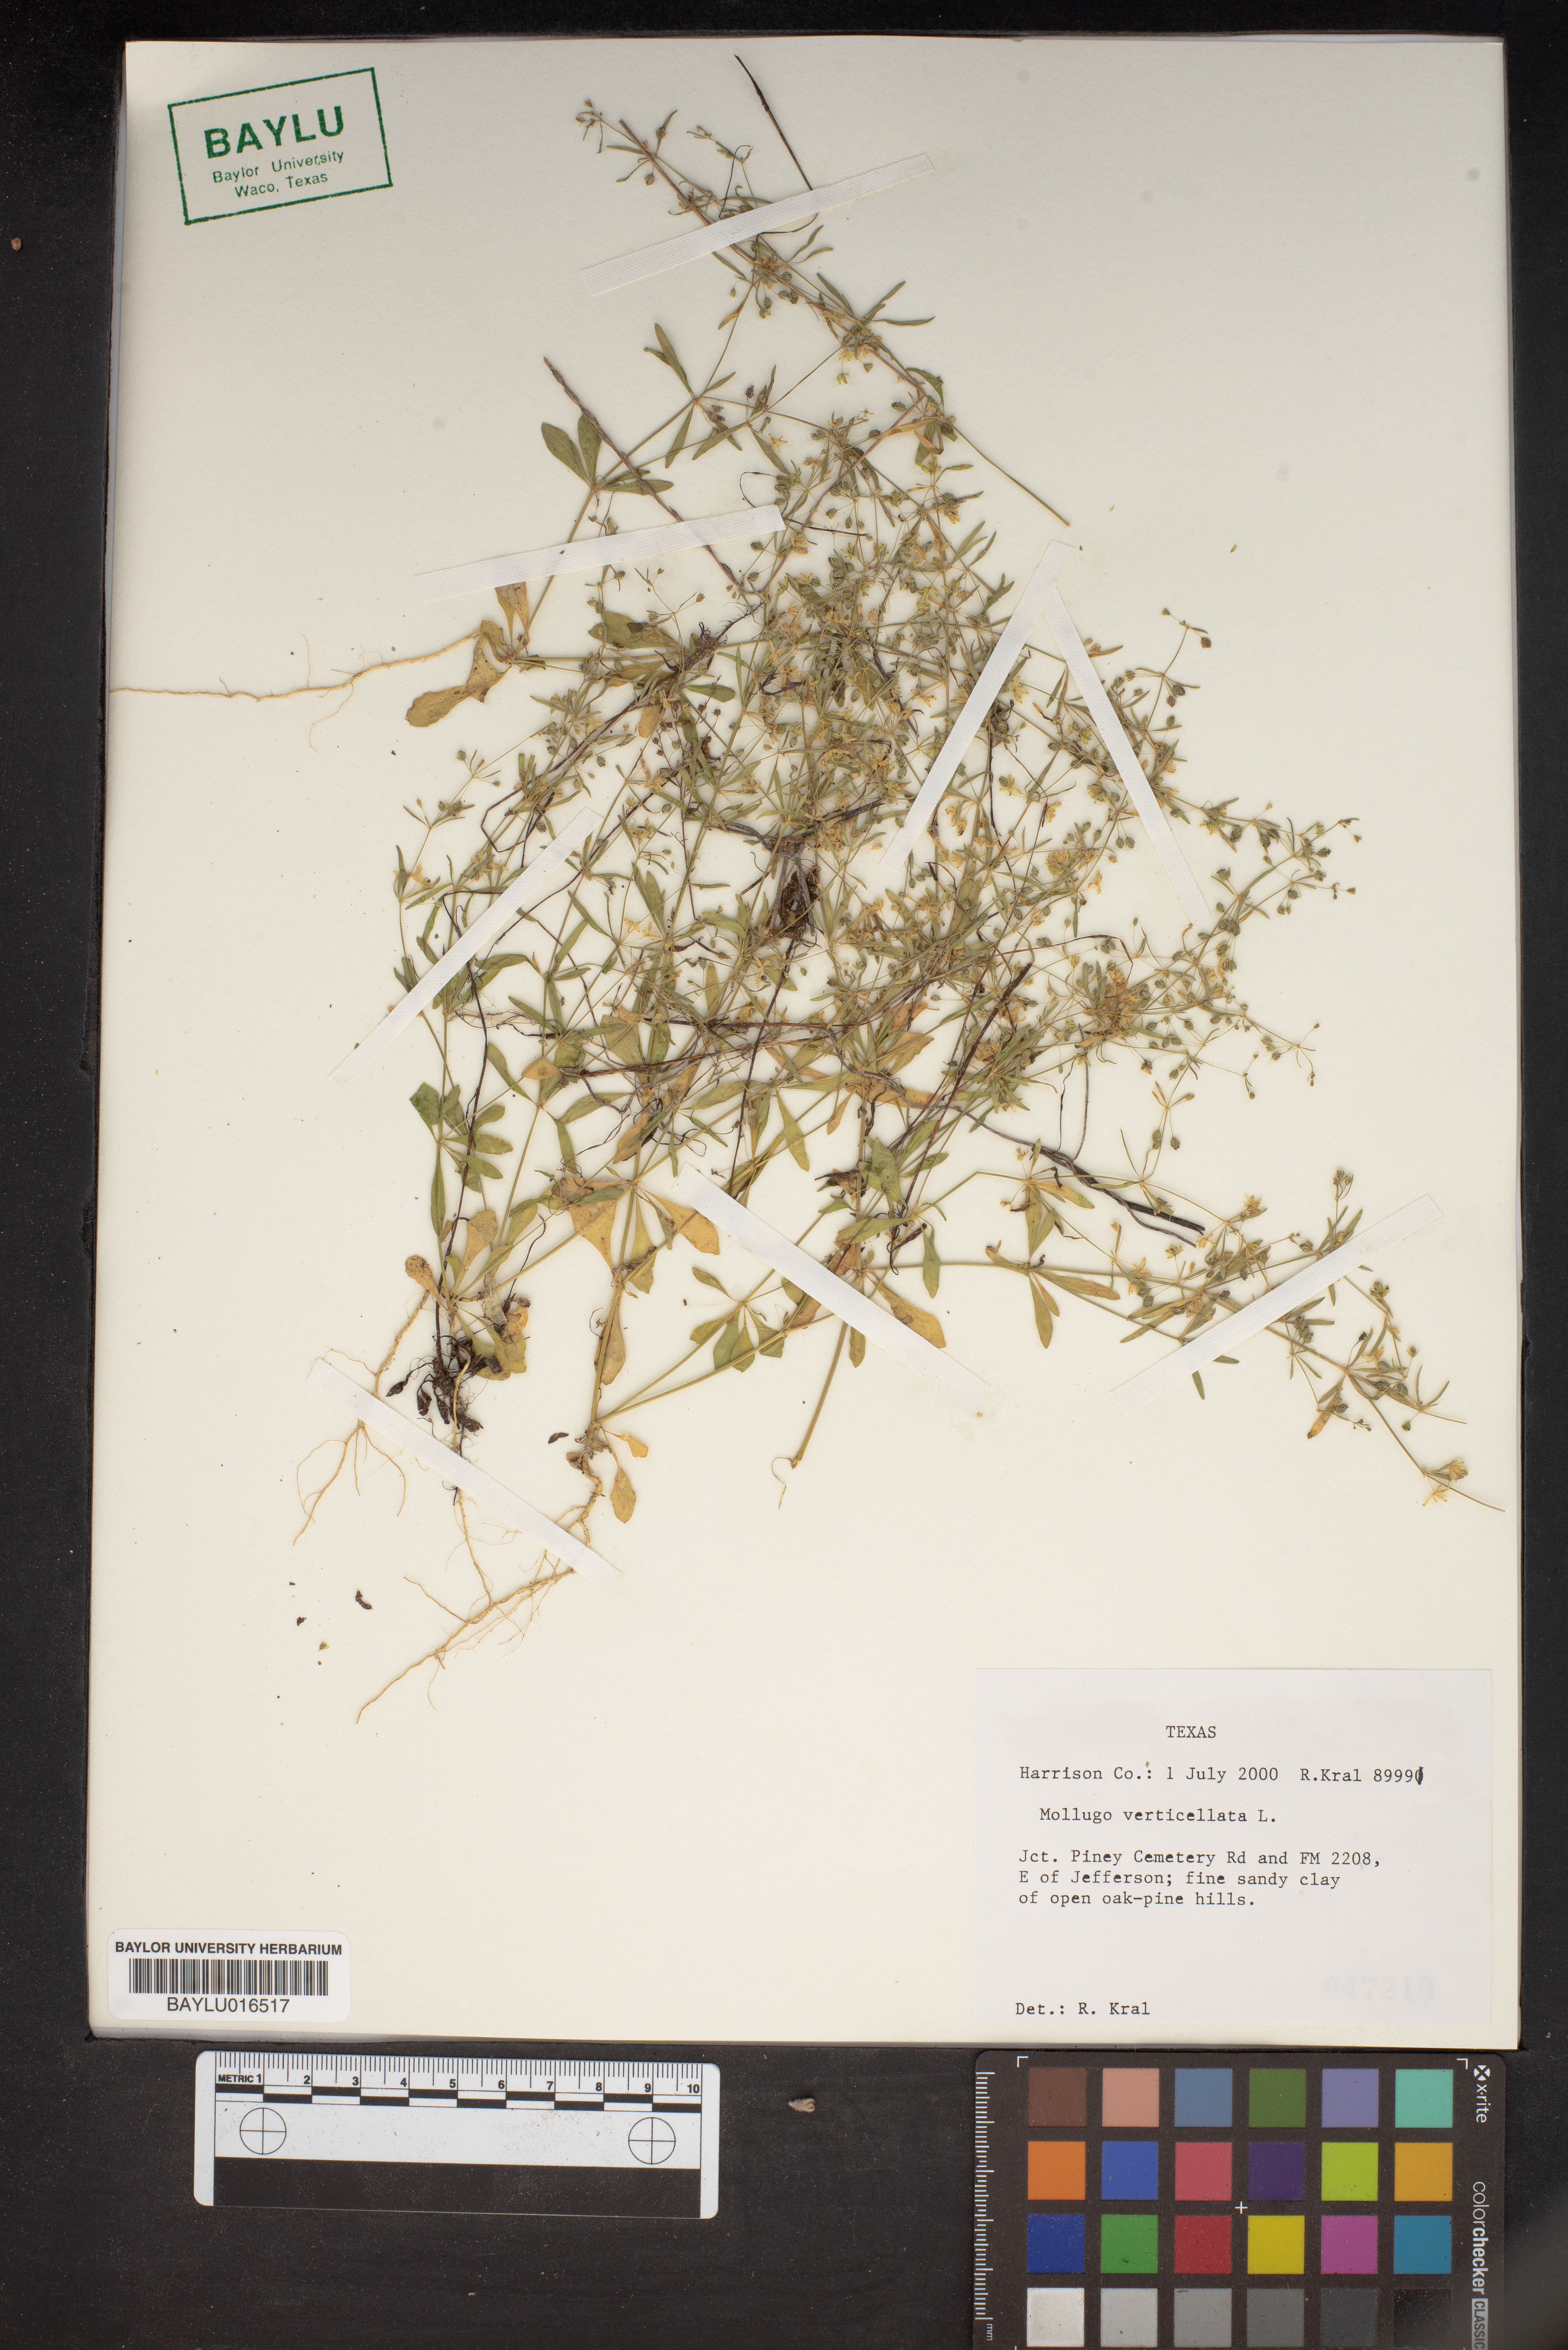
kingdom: Plantae
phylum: Tracheophyta
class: Magnoliopsida
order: Caryophyllales
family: Molluginaceae
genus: Mollugo
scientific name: Mollugo verticillata
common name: Green carpetweed
